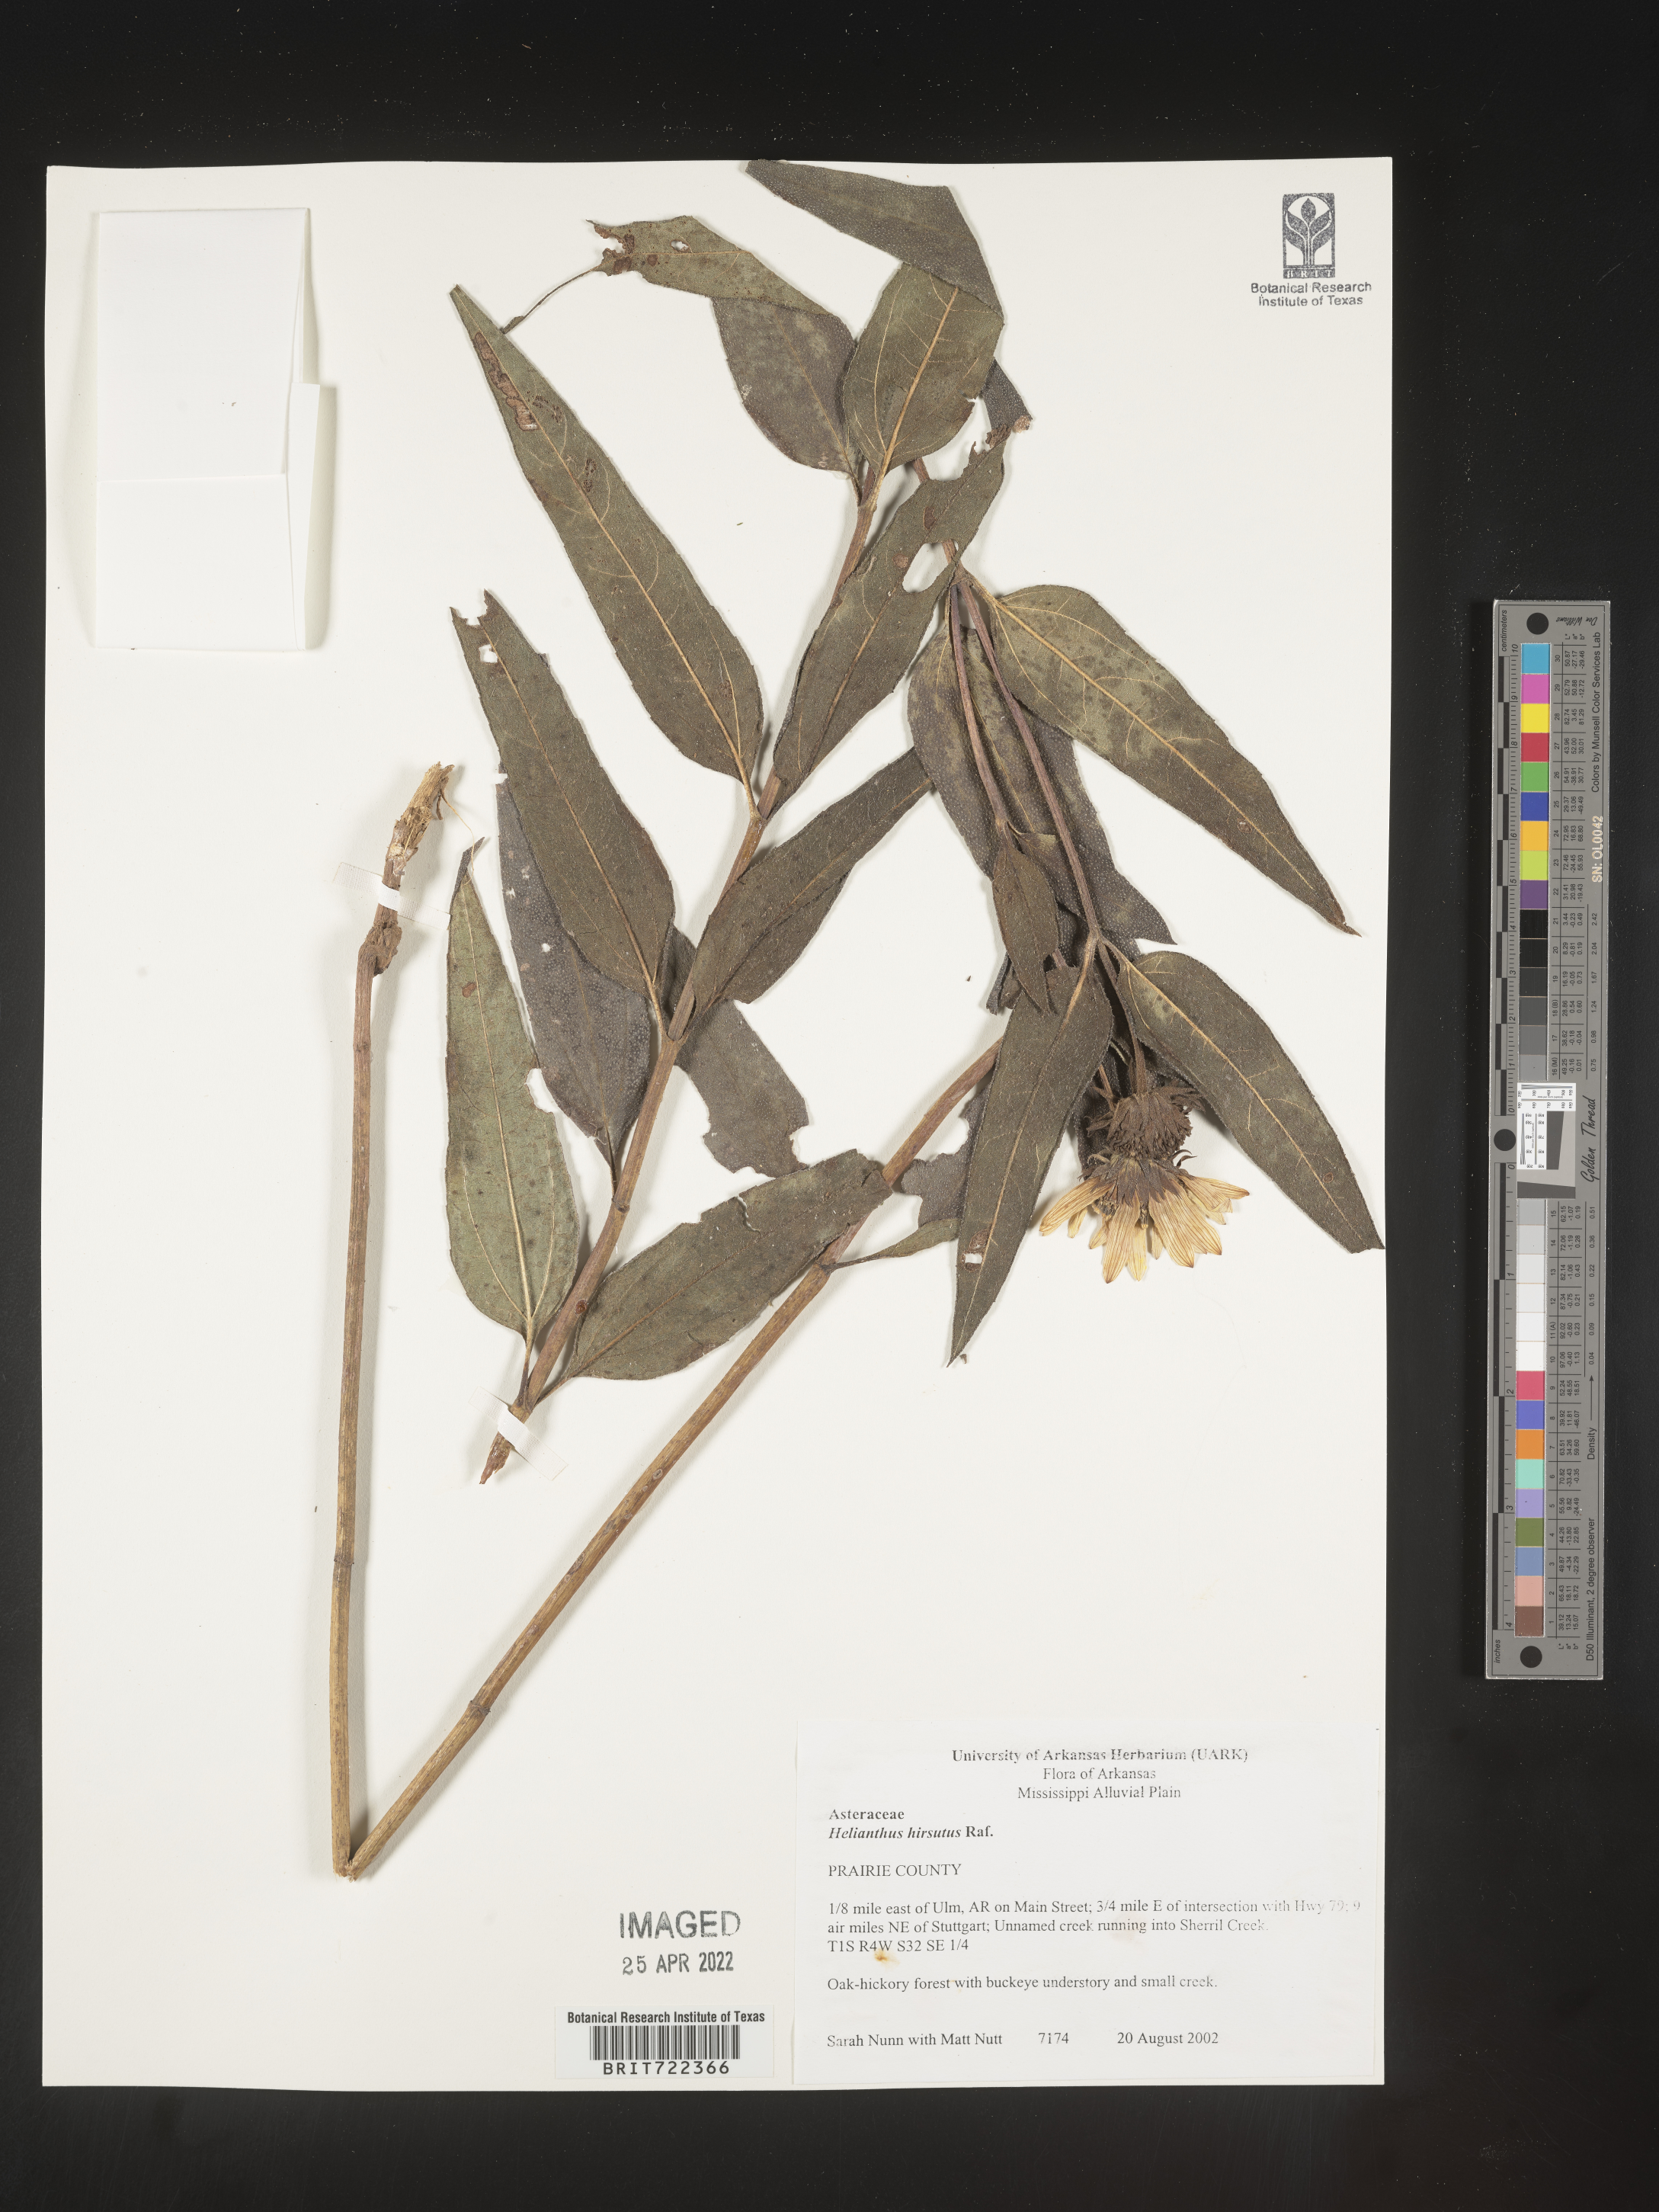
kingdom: Plantae
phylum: Tracheophyta
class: Magnoliopsida
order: Asterales
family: Asteraceae
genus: Helianthus
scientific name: Helianthus hirsutus
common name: Hairy sunflower
